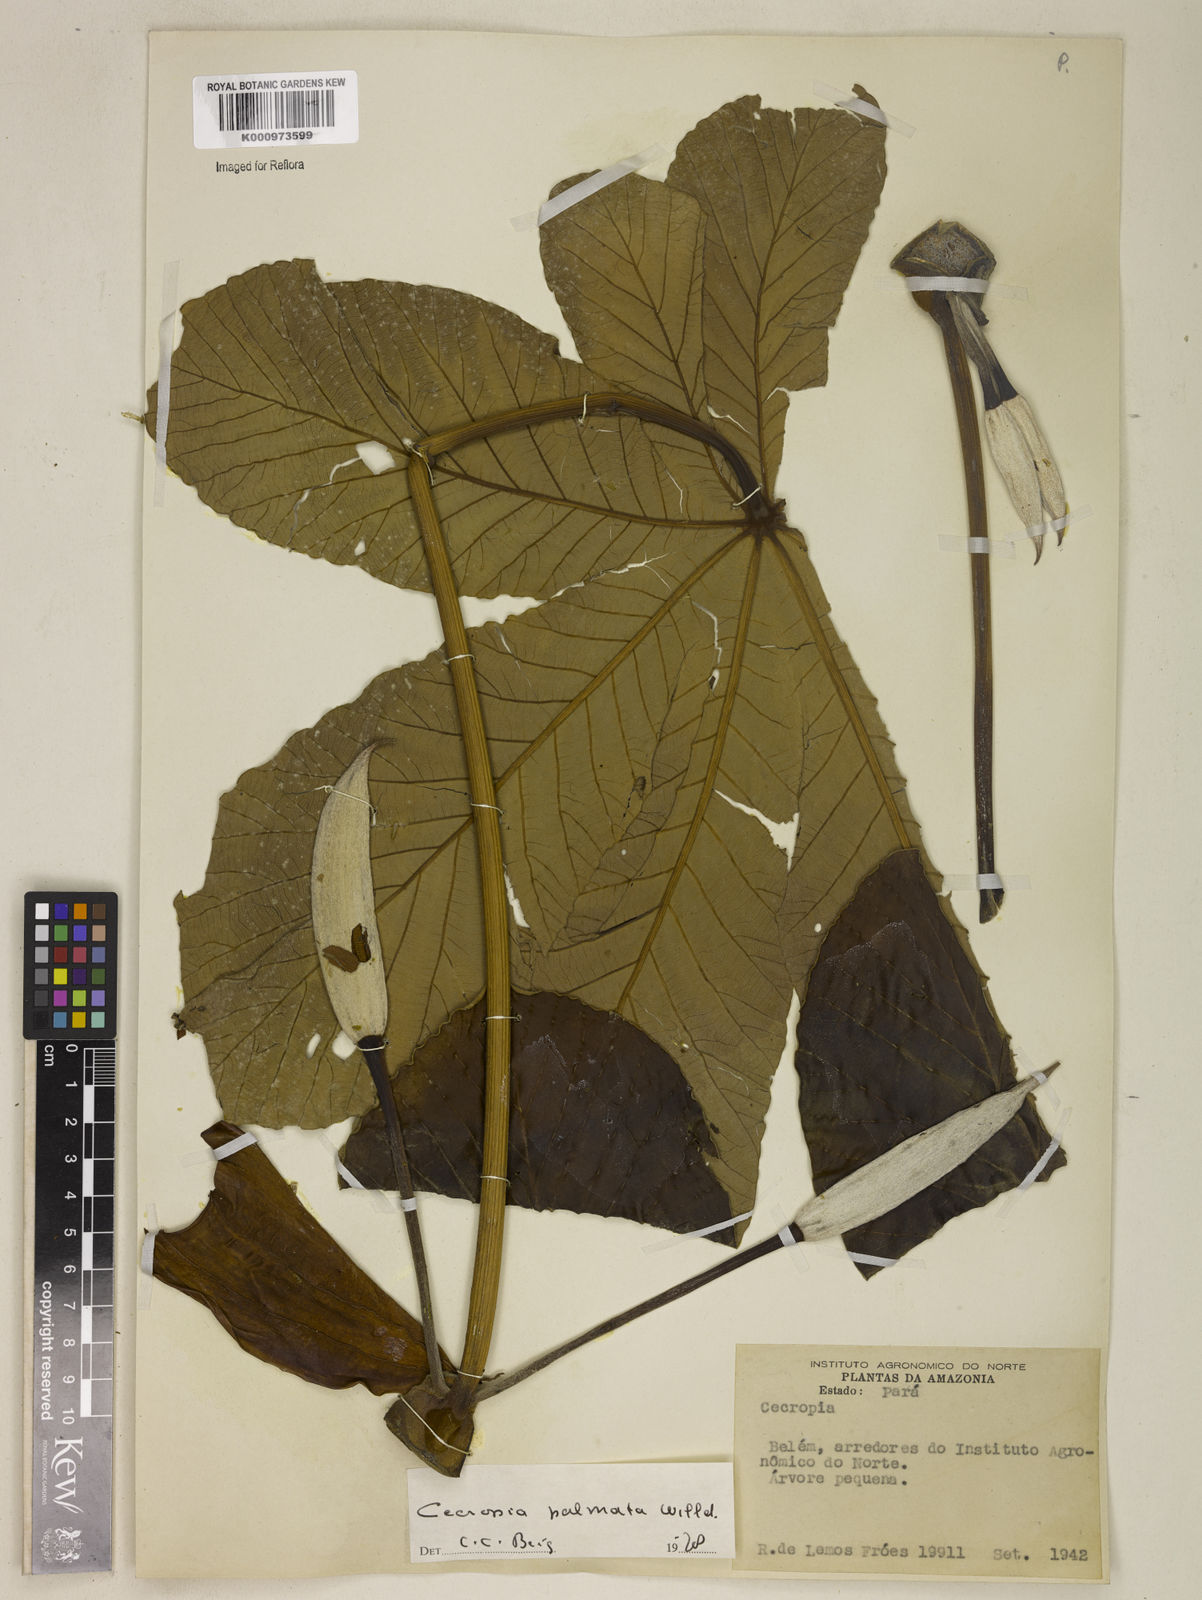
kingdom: Plantae
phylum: Tracheophyta
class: Magnoliopsida
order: Rosales
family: Urticaceae
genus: Cecropia
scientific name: Cecropia palmata
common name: Trumpet tree
